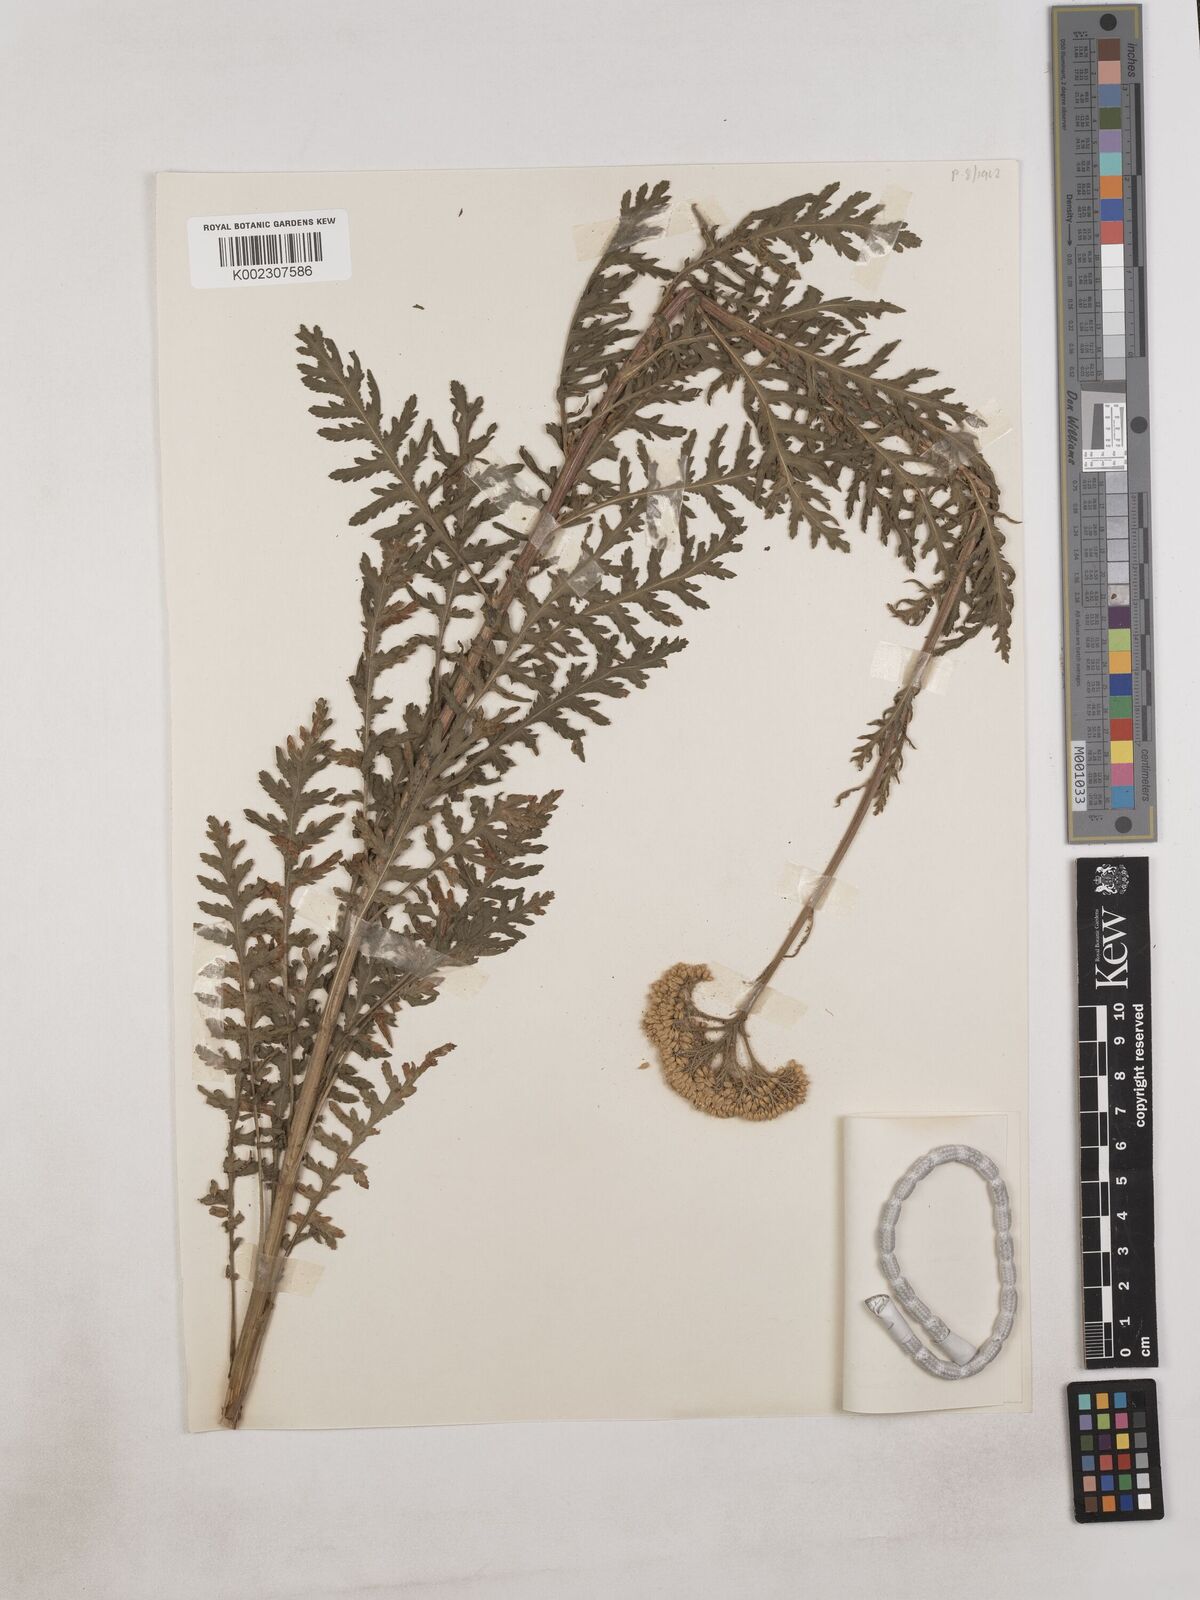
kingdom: Plantae
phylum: Tracheophyta
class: Magnoliopsida
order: Asterales
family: Asteraceae
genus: Achillea
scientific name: Achillea filipendulina
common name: Fernleaf yarrow
